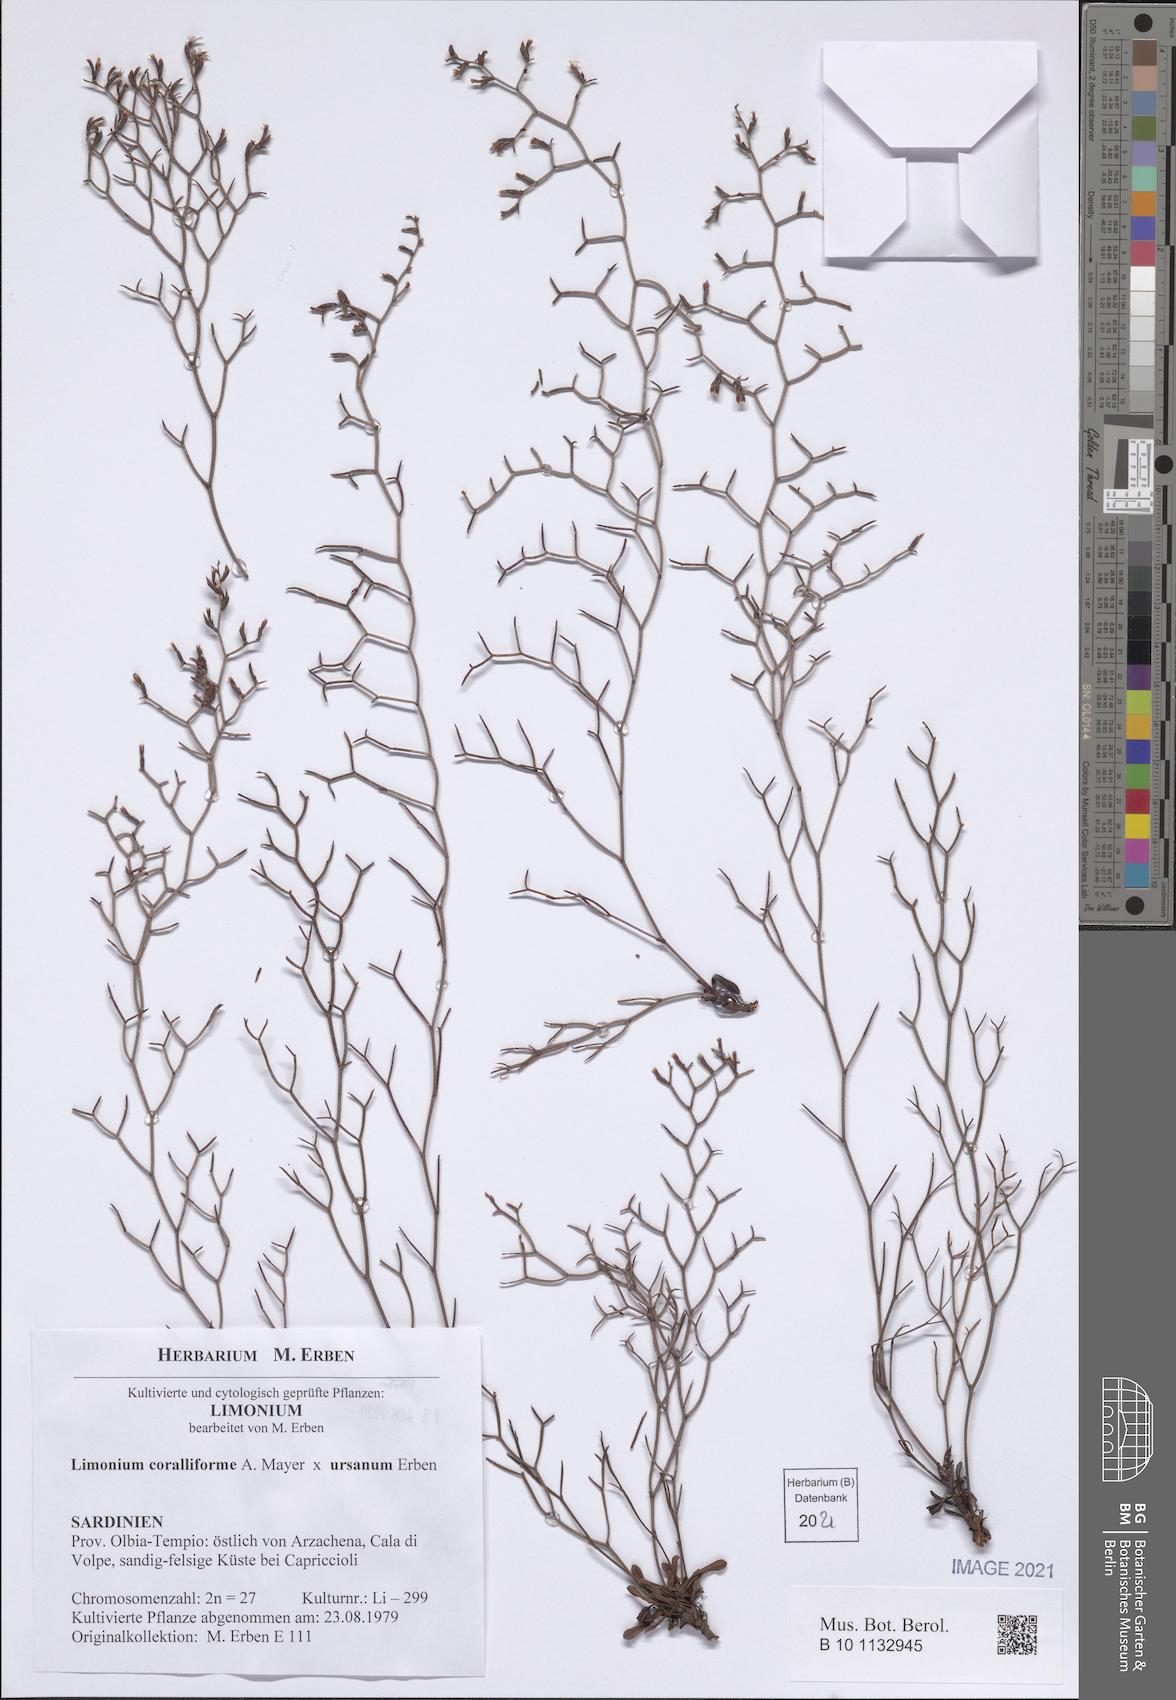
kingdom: Plantae
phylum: Tracheophyta
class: Magnoliopsida
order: Caryophyllales
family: Plumbaginaceae
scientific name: Plumbaginaceae
